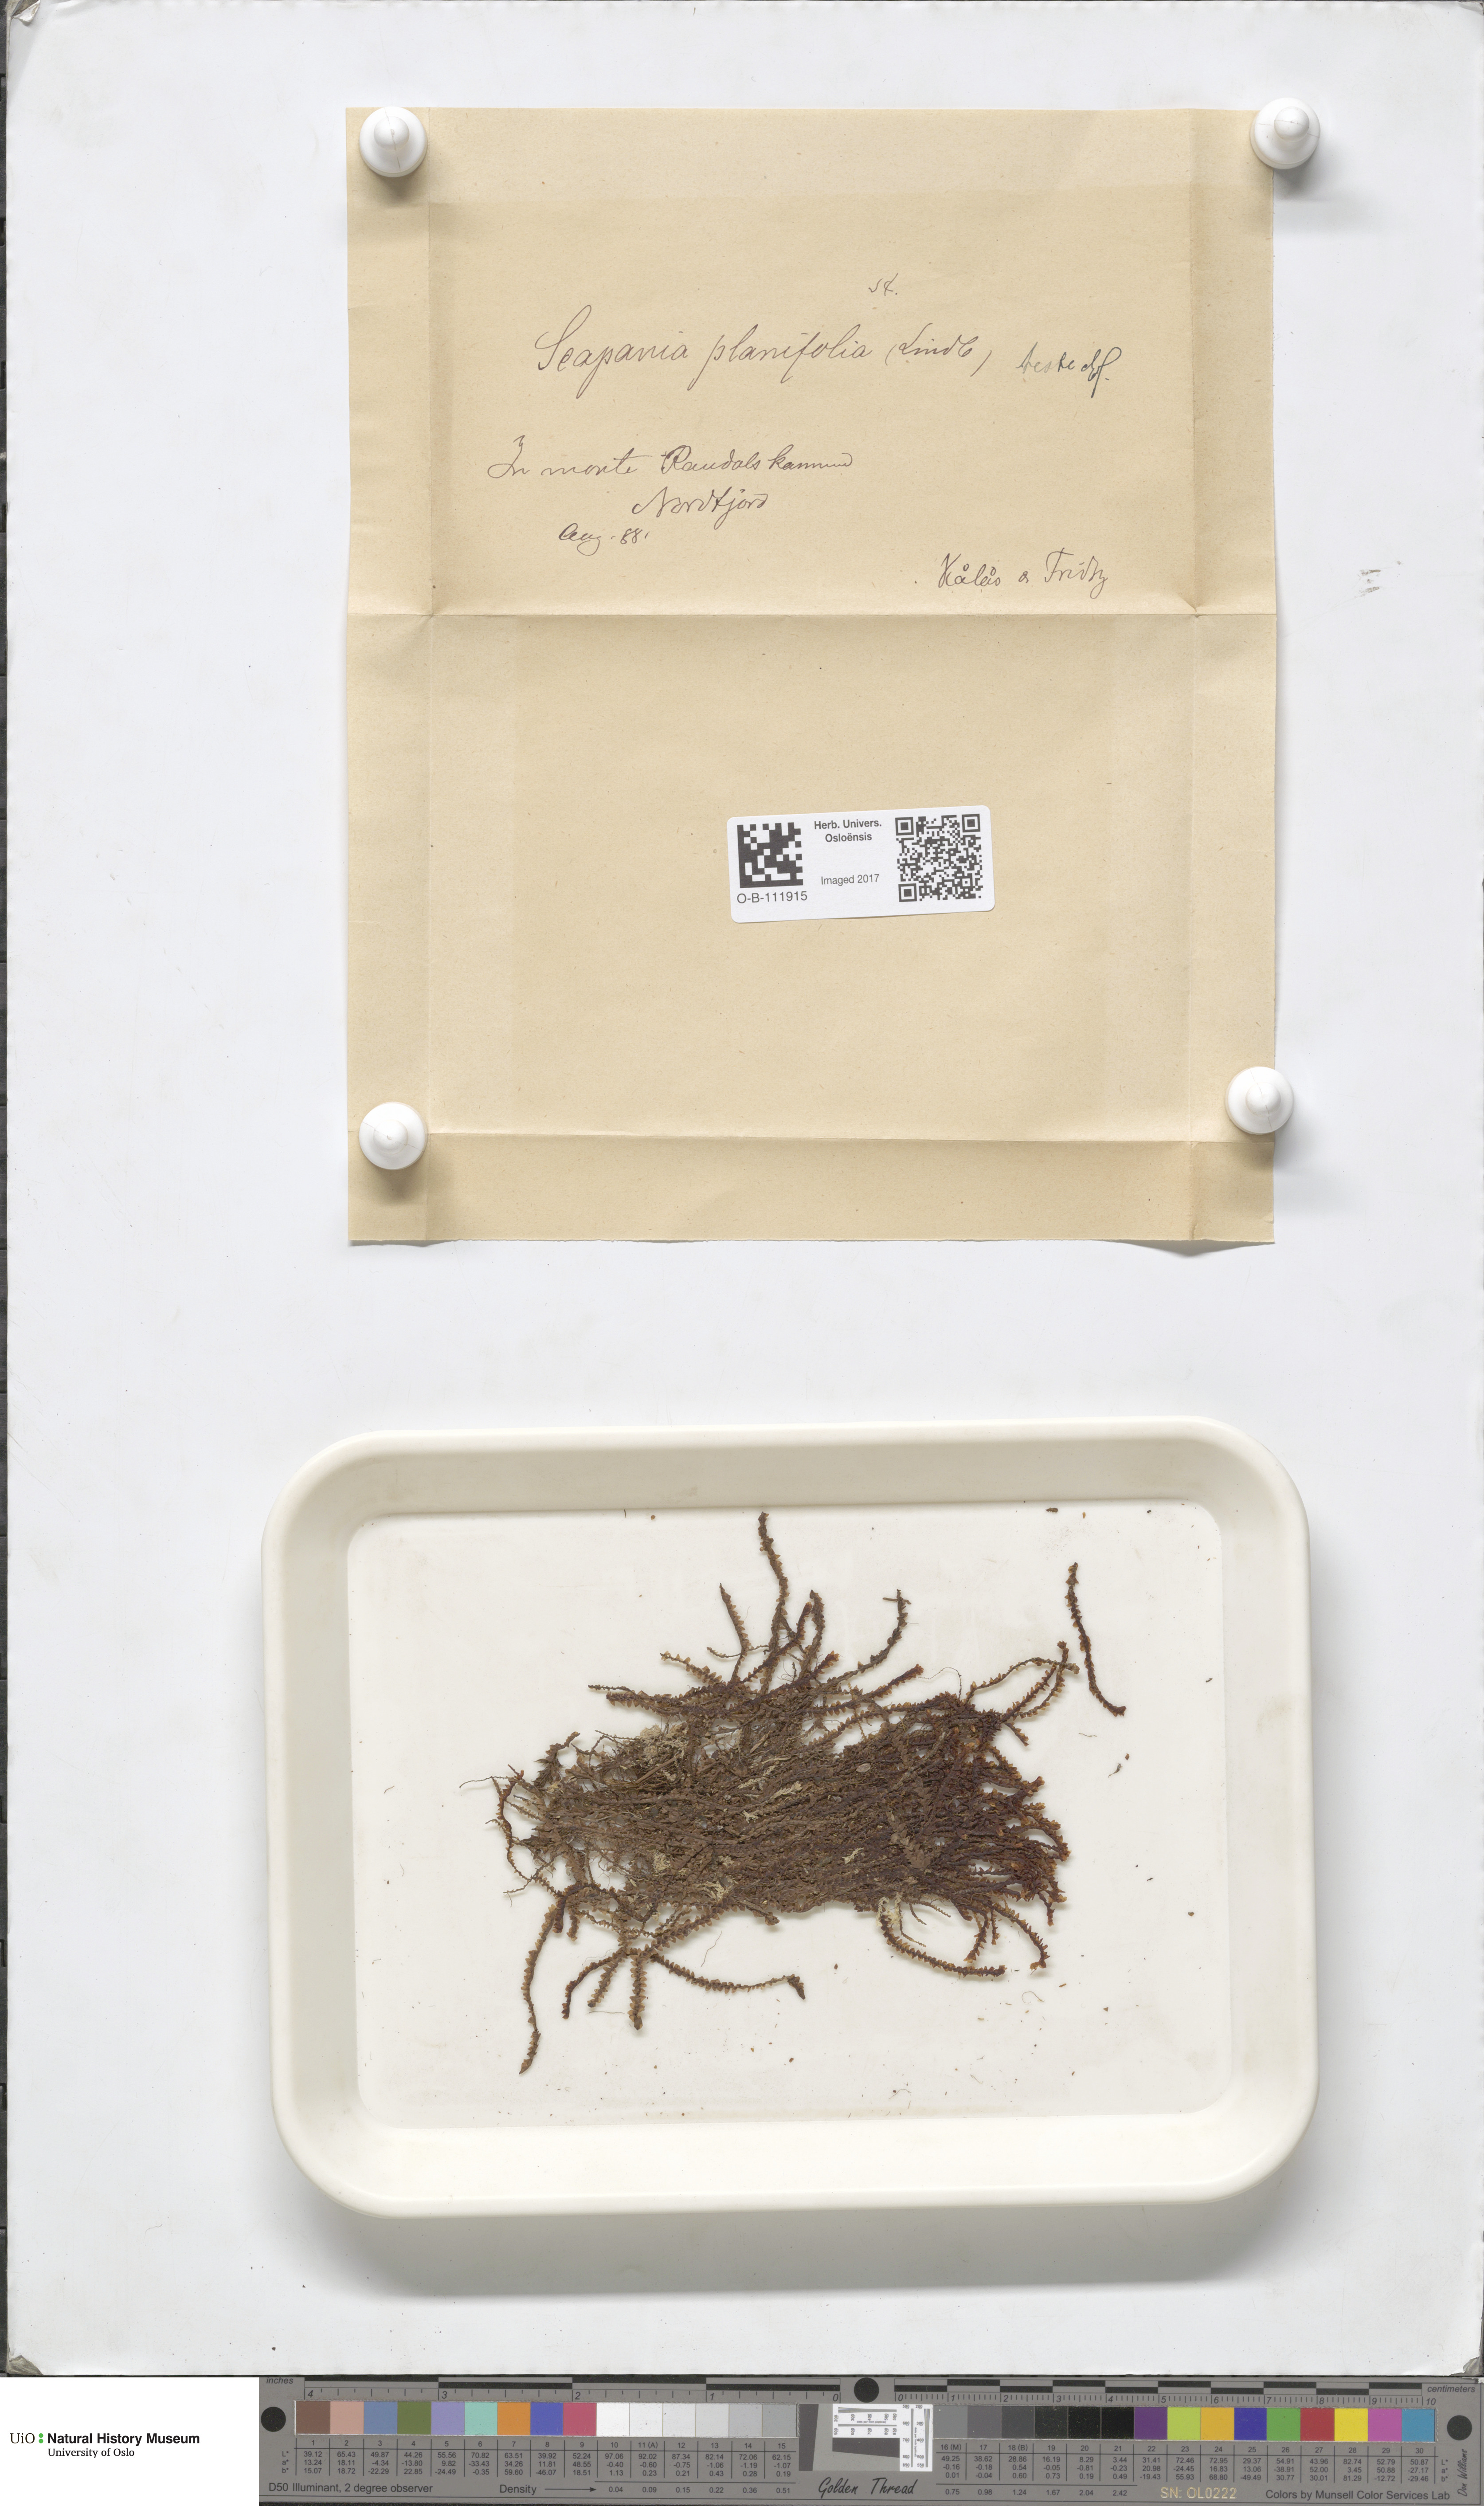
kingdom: Plantae
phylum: Marchantiophyta
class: Jungermanniopsida
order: Jungermanniales
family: Scapaniaceae
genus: Scapania
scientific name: Scapania ornithopodioides
